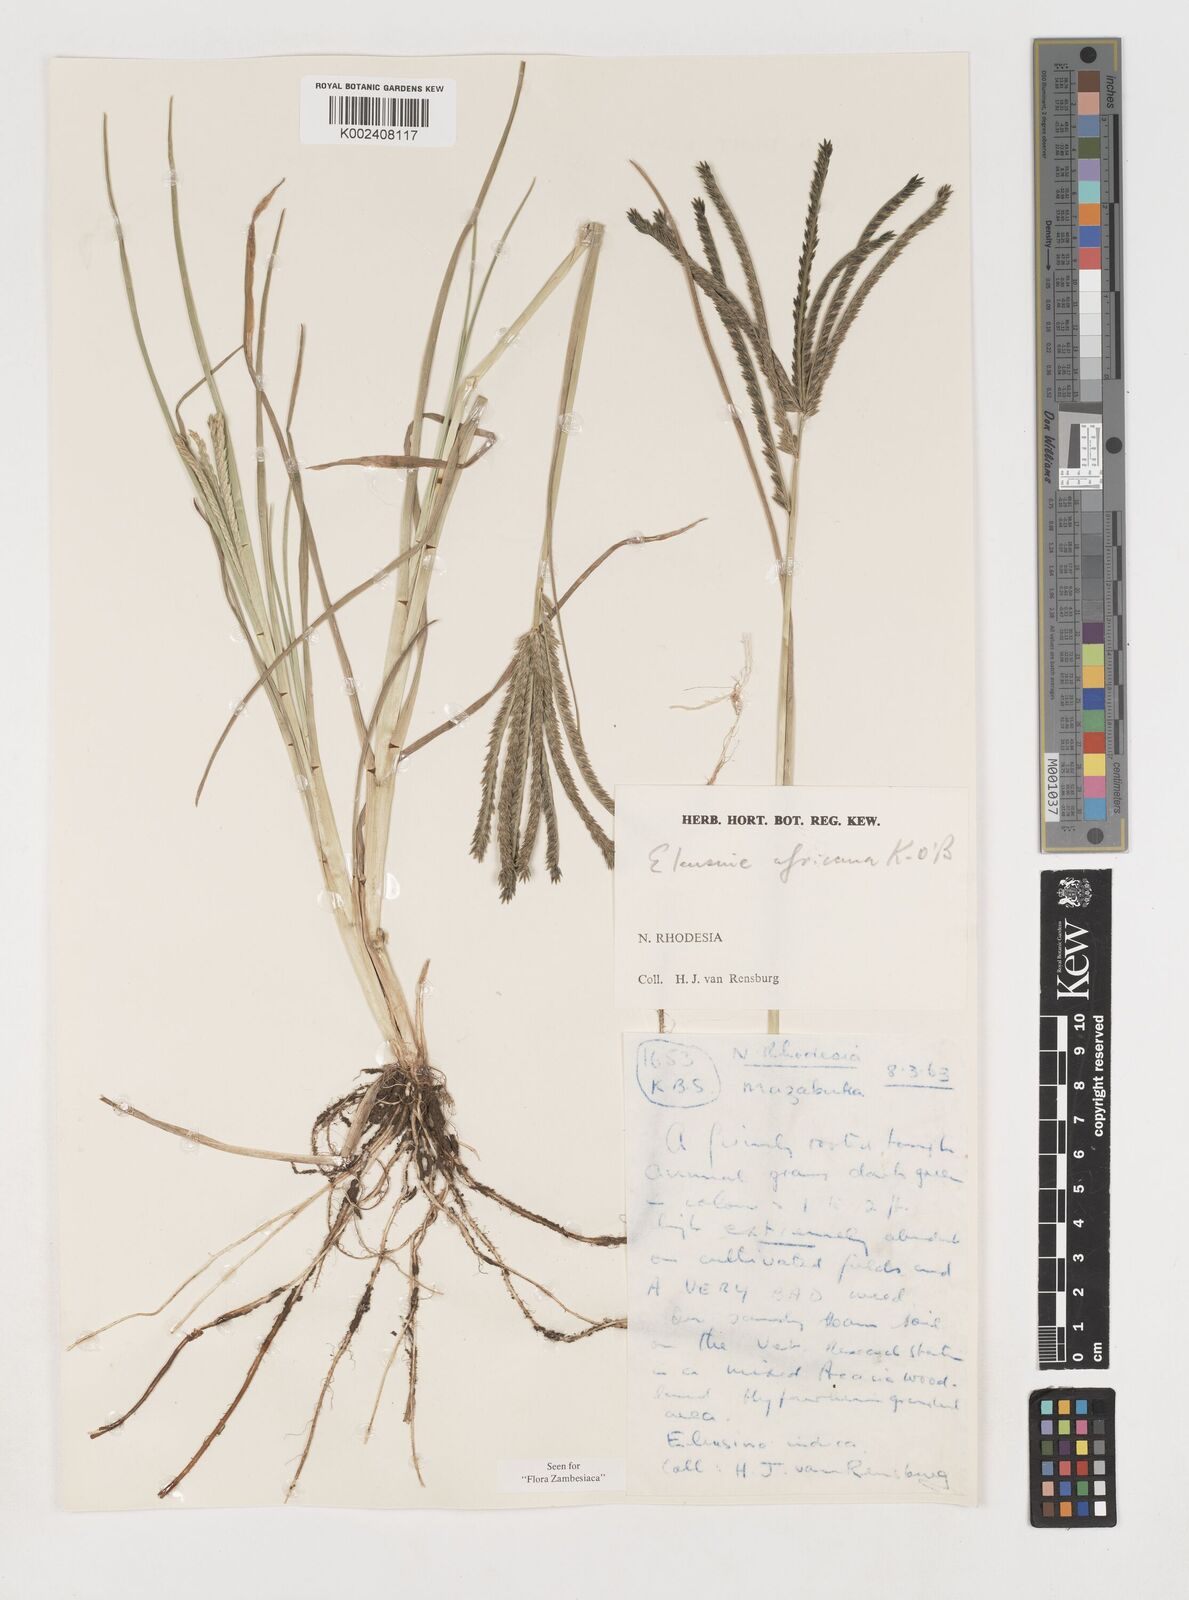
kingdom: Plantae
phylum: Tracheophyta
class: Liliopsida
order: Poales
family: Poaceae
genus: Eleusine
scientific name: Eleusine africana
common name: Wild african finger millet
